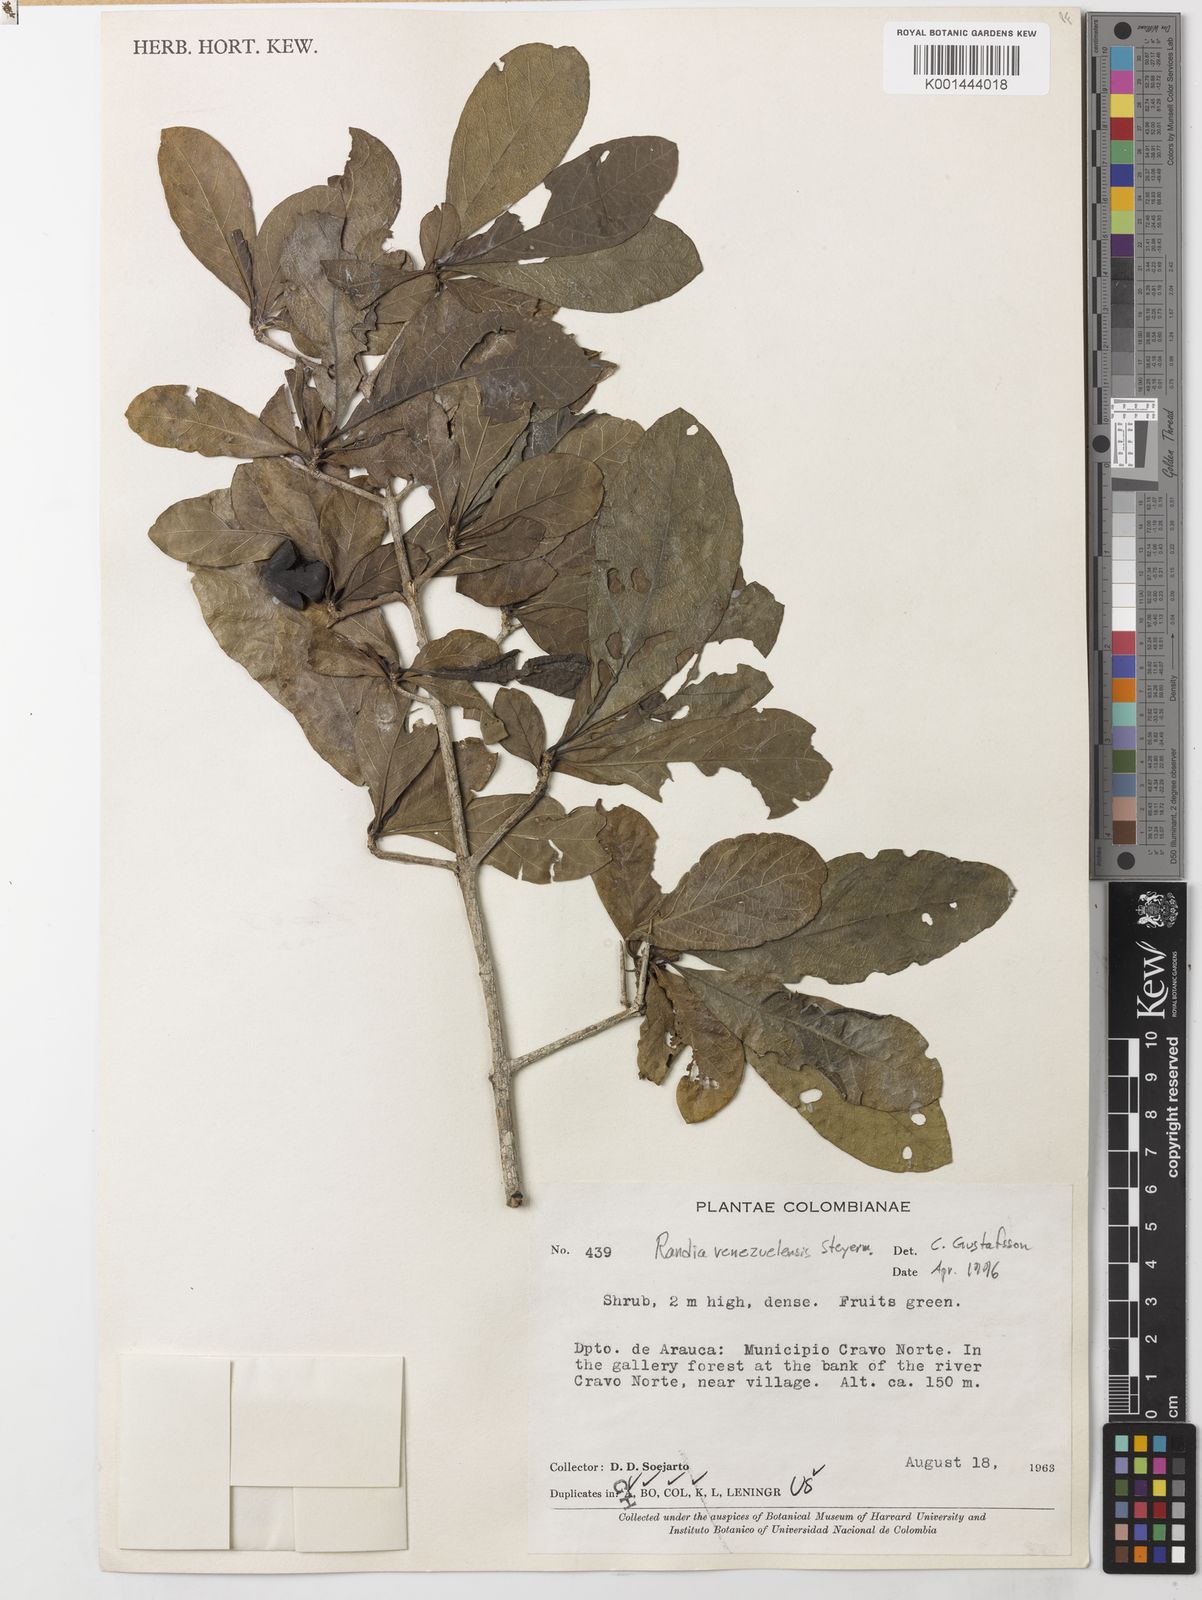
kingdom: Plantae
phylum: Tracheophyta
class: Magnoliopsida
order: Gentianales
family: Rubiaceae
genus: Randia
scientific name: Randia venezuelensis
